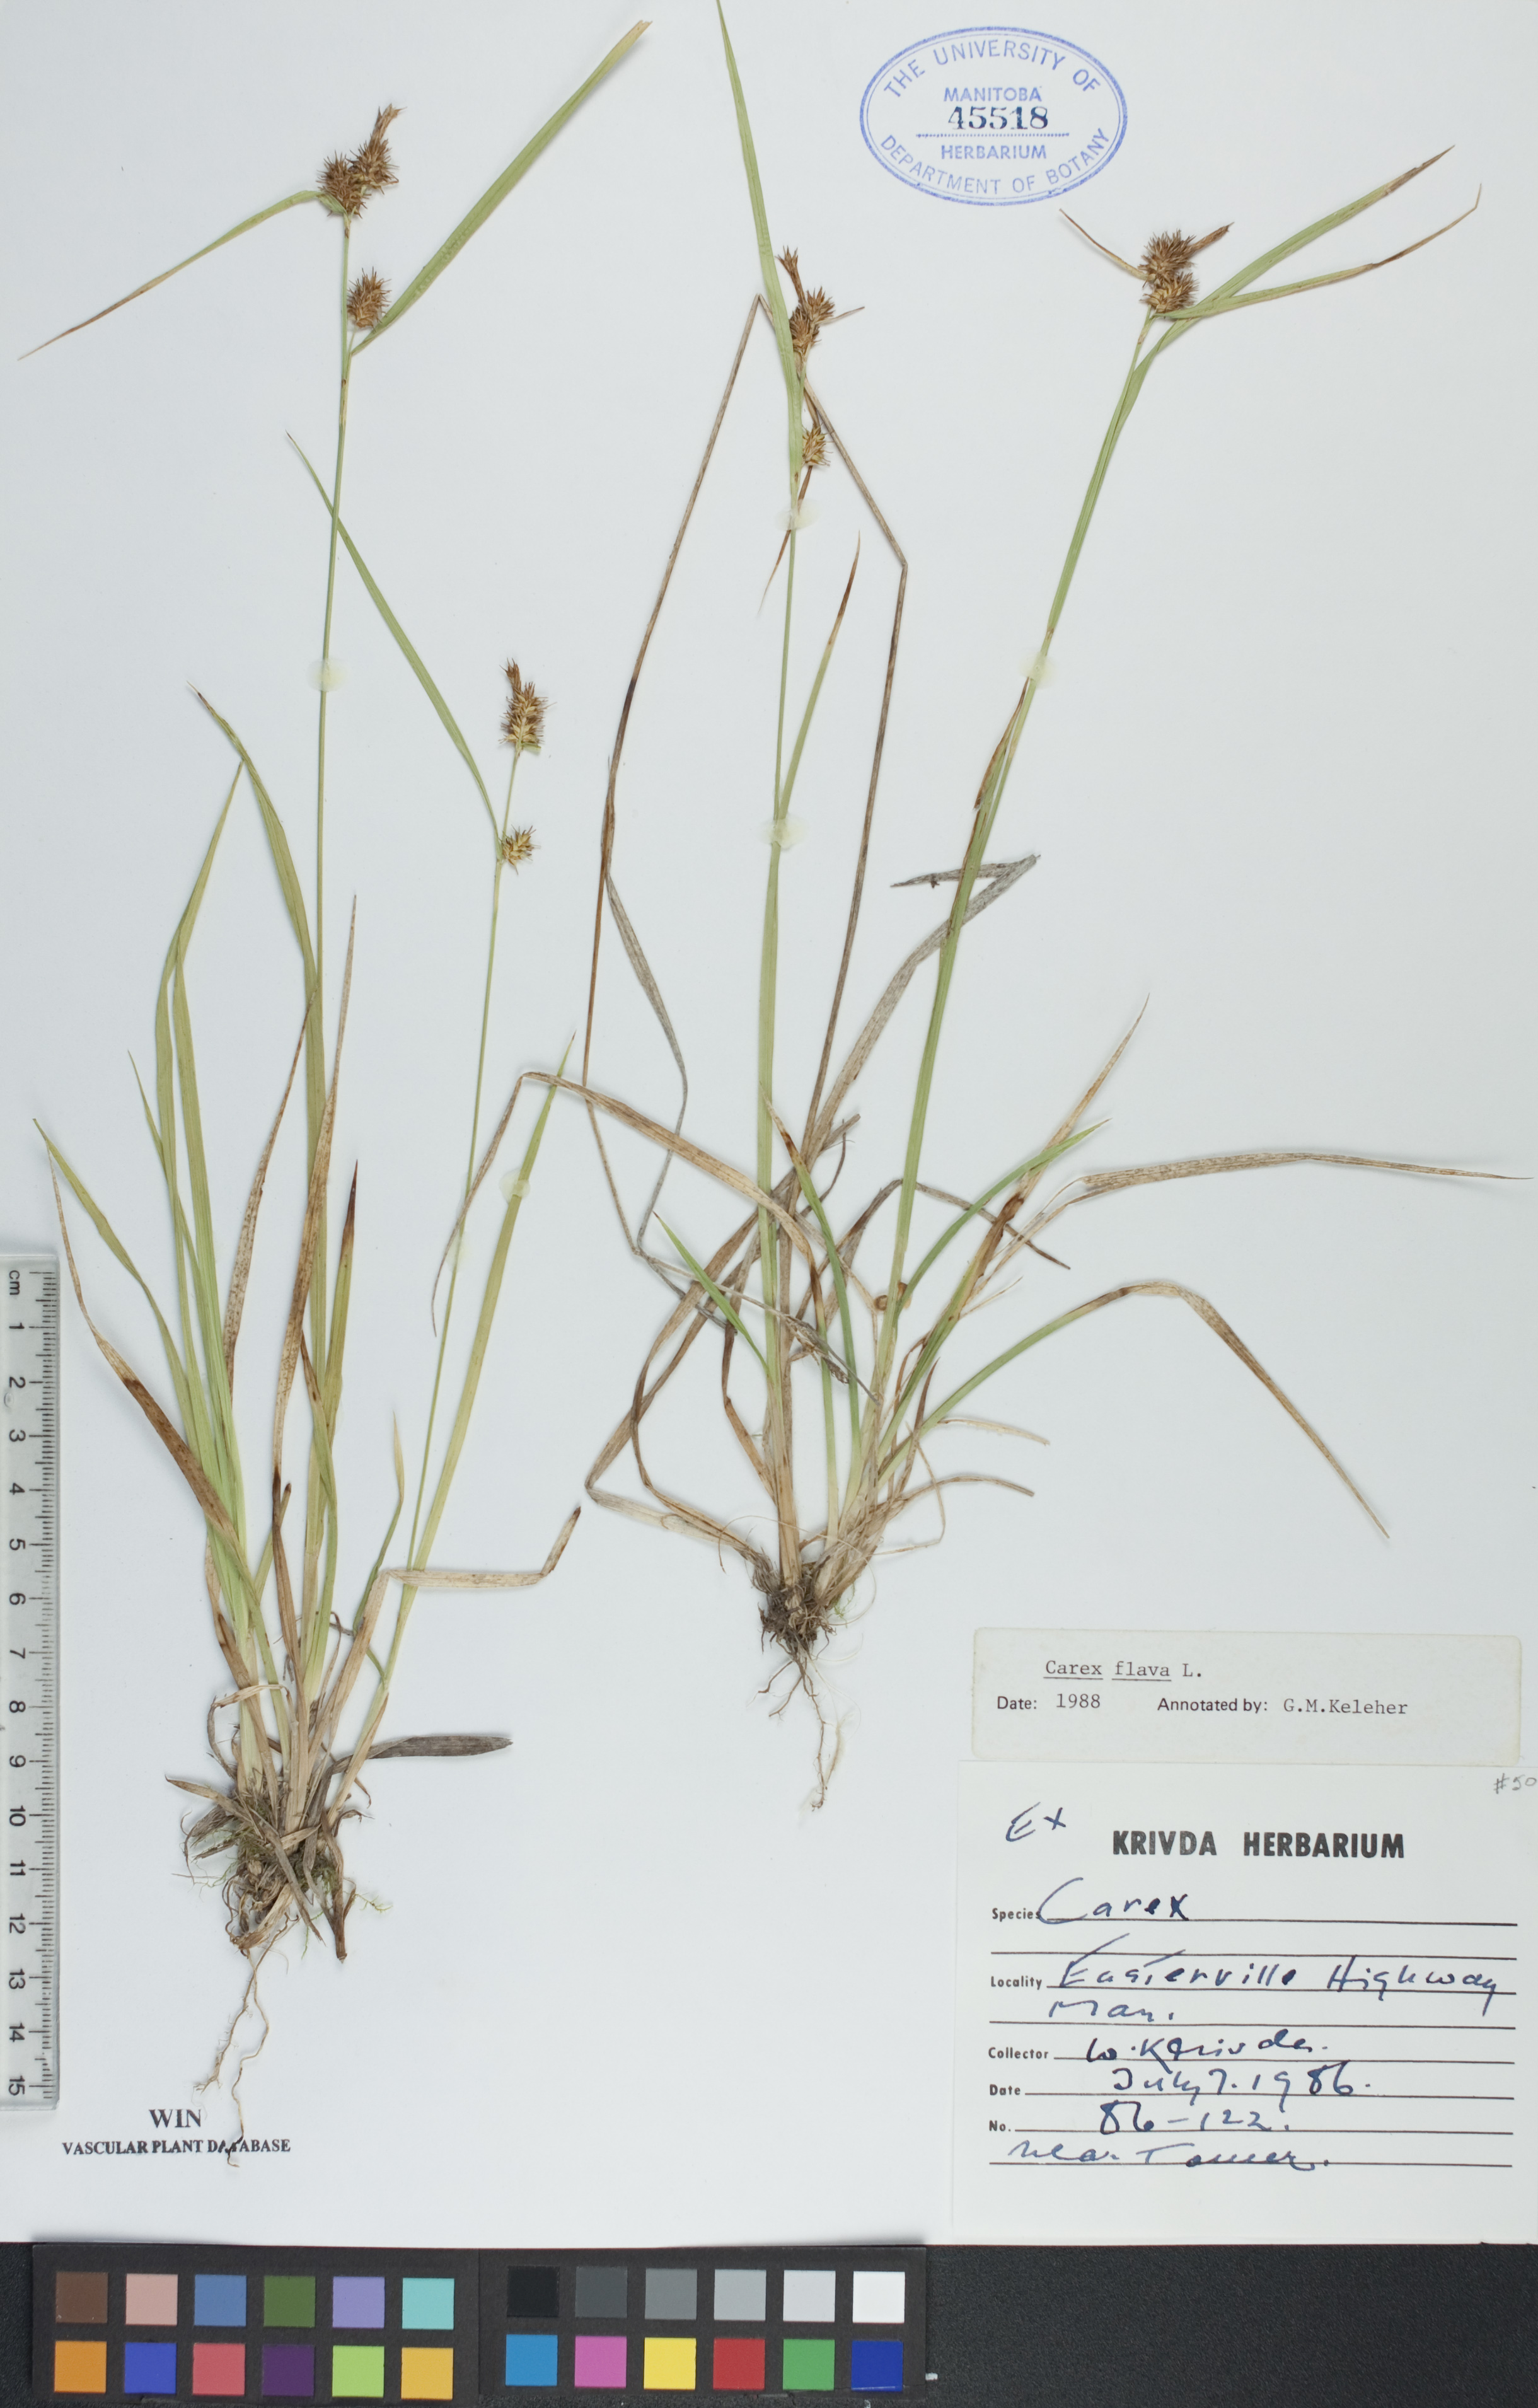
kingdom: Plantae
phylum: Tracheophyta
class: Liliopsida
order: Poales
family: Cyperaceae
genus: Carex
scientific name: Carex flava
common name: Large yellow-sedge
